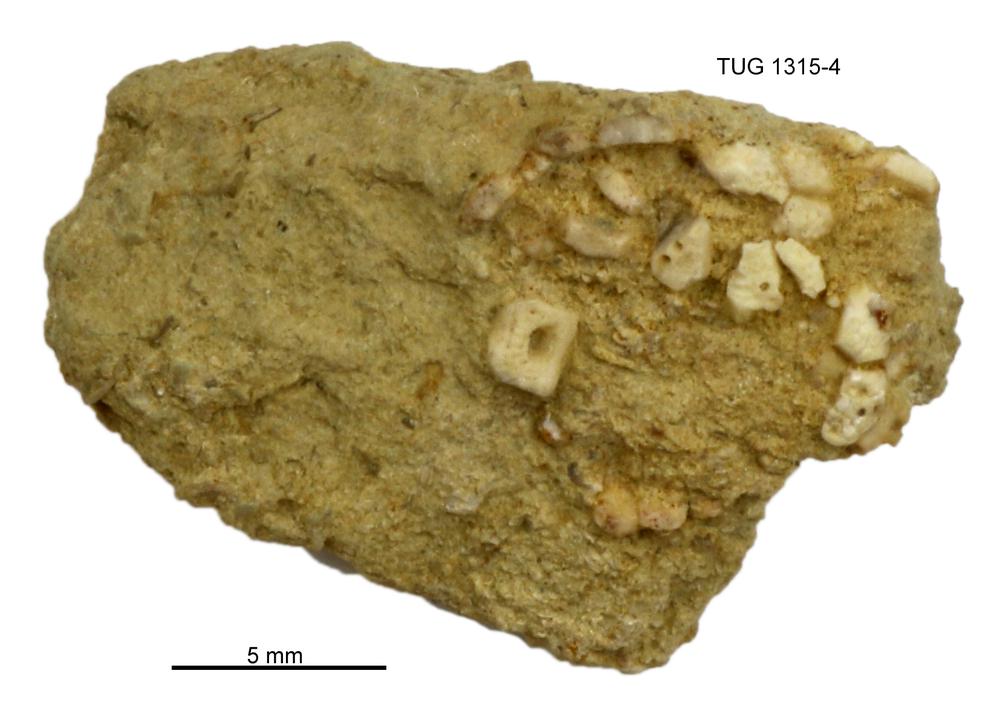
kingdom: Animalia
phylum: Echinodermata
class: Echinoidea
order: Bothriocidaroida
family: Bothriocidaridae
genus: Bothriocidaris
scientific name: Bothriocidaris
